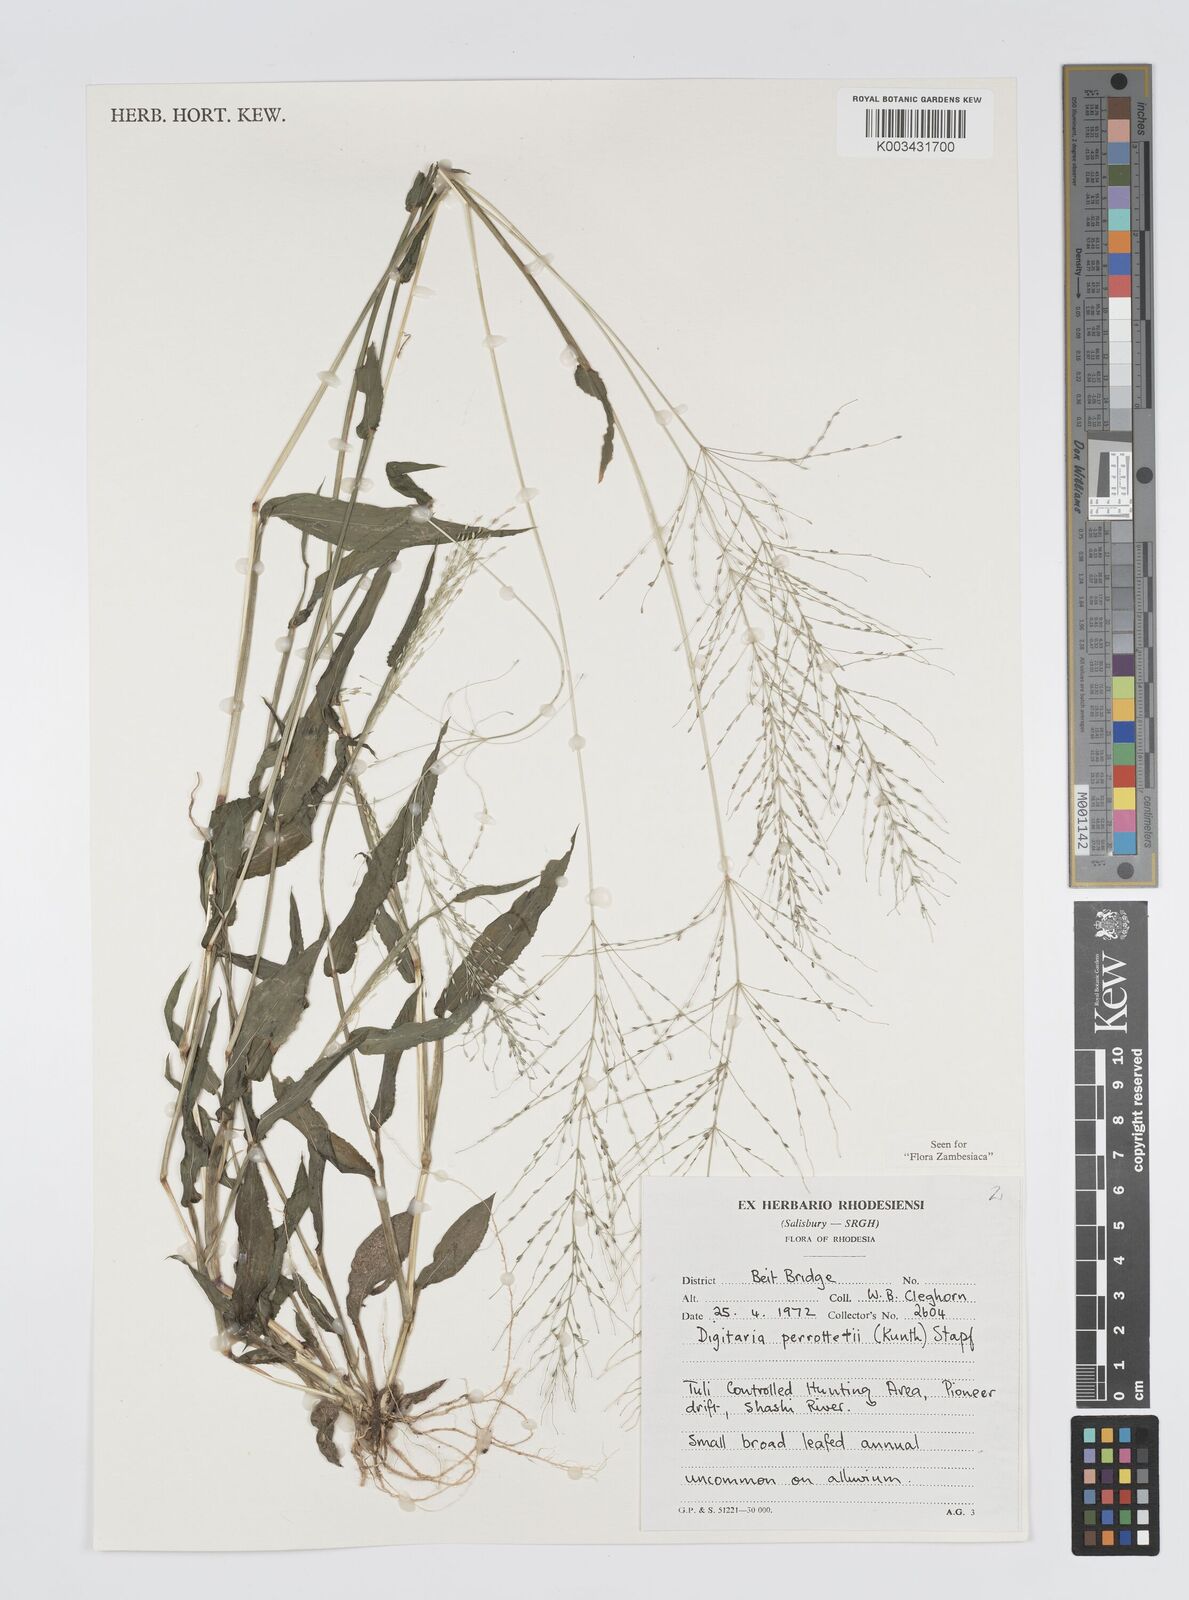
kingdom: Plantae
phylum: Tracheophyta
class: Liliopsida
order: Poales
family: Poaceae
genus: Digitaria
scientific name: Digitaria perrottetii
